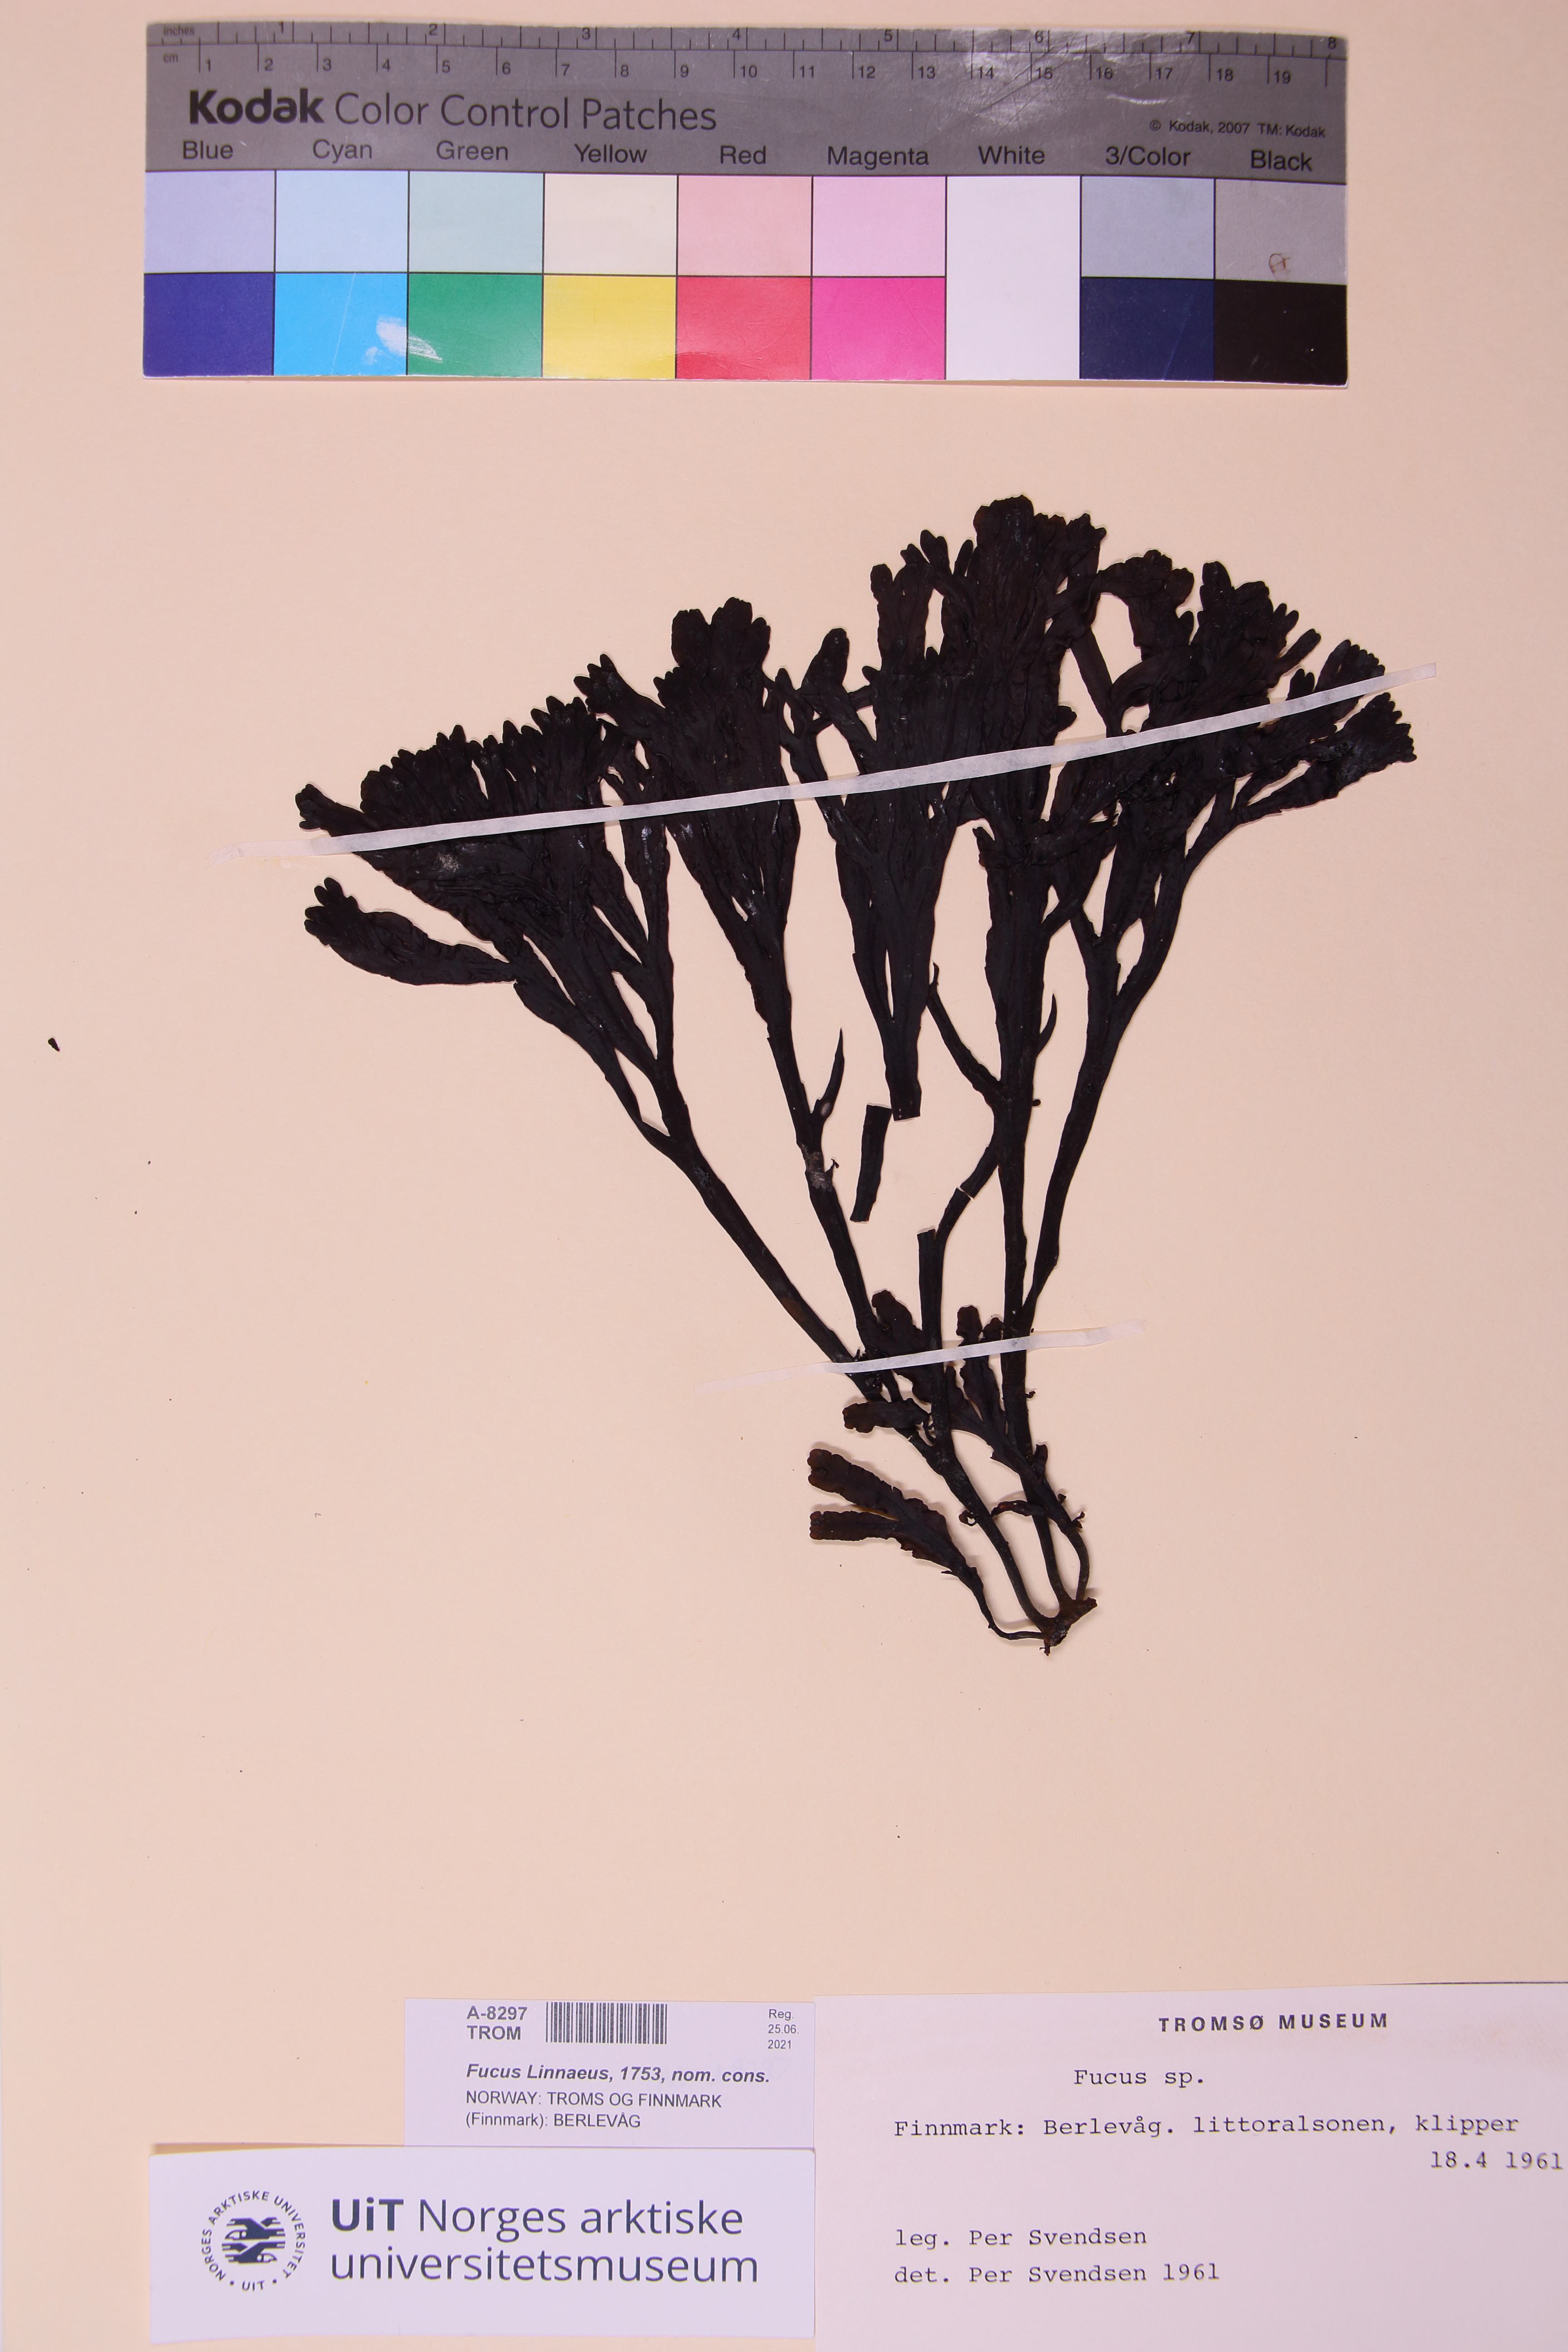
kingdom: Chromista
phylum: Ochrophyta
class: Phaeophyceae
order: Fucales
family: Fucaceae
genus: Fucus
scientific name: Fucus
